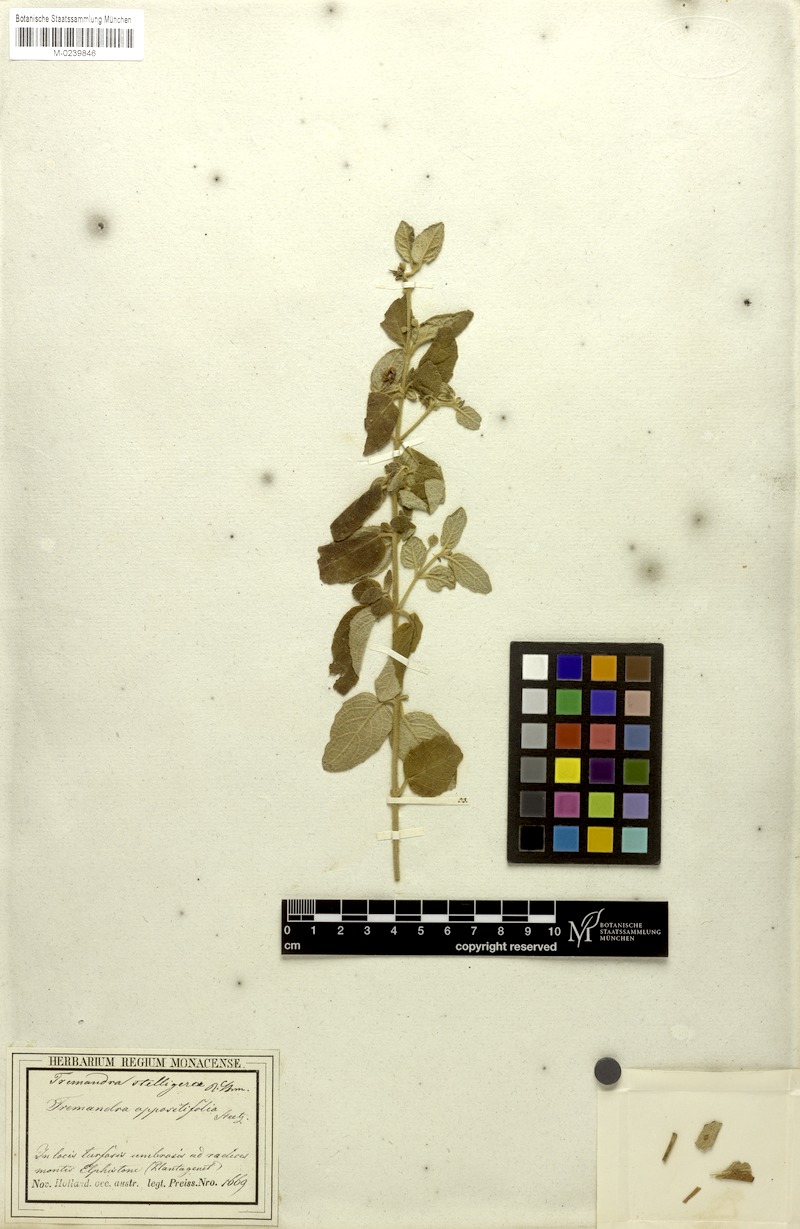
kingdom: Plantae
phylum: Tracheophyta
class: Magnoliopsida
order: Oxalidales
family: Elaeocarpaceae
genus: Tremandra
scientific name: Tremandra stelligera
